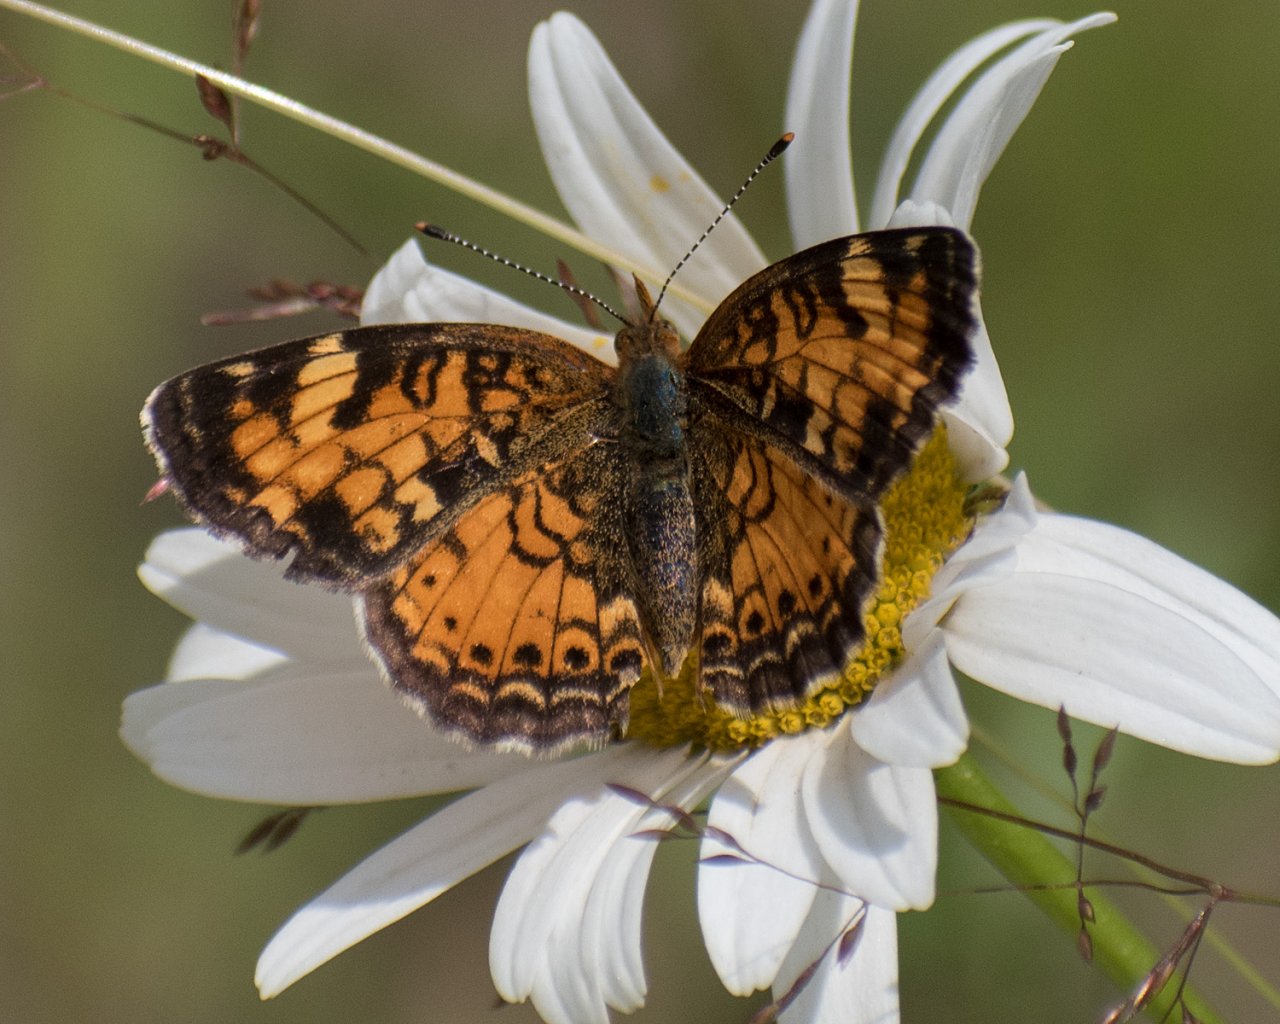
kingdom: Animalia
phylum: Arthropoda
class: Insecta
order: Lepidoptera
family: Nymphalidae
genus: Phyciodes
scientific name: Phyciodes tharos
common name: Northern Crescent
